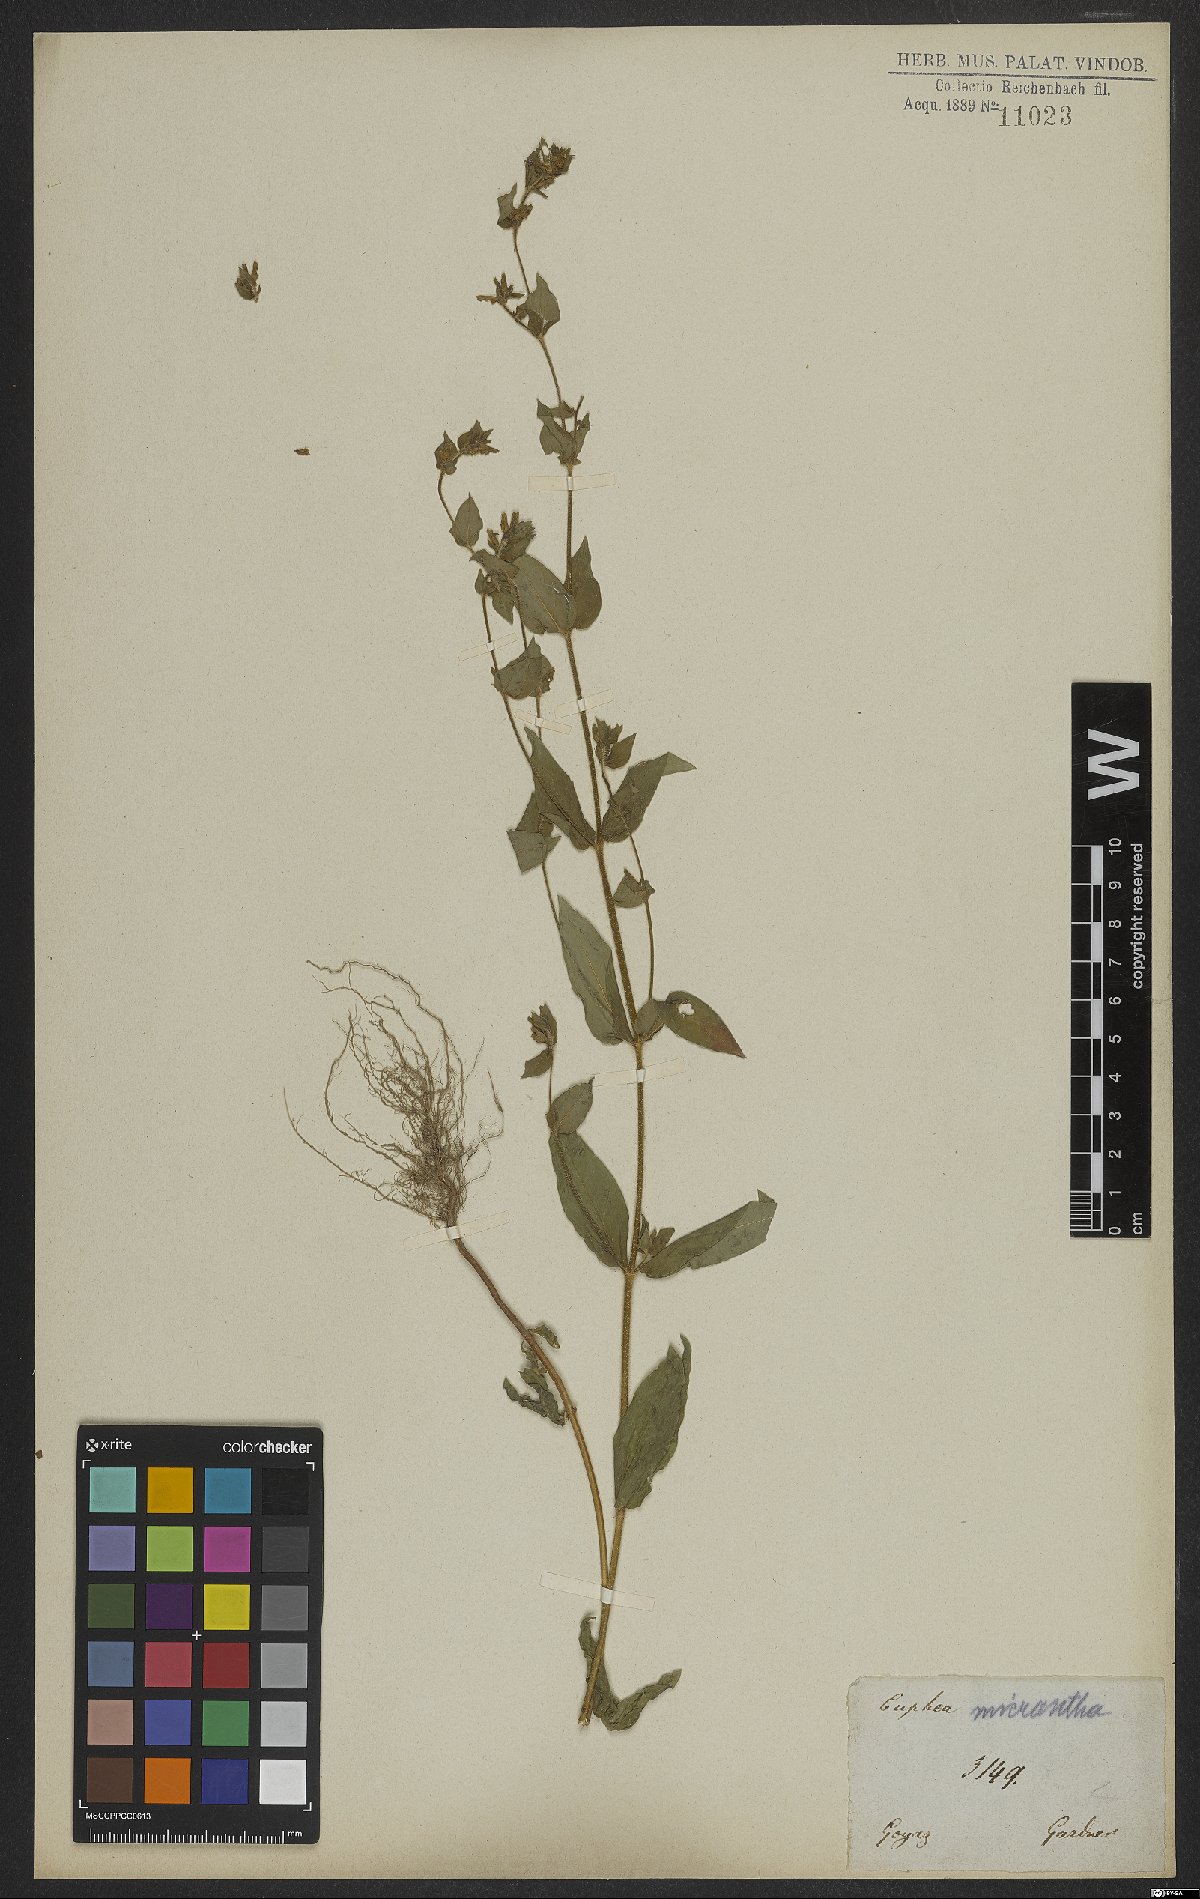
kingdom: Plantae
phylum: Tracheophyta
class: Magnoliopsida
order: Myrtales
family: Lythraceae
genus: Cuphea
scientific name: Cuphea micrantha
